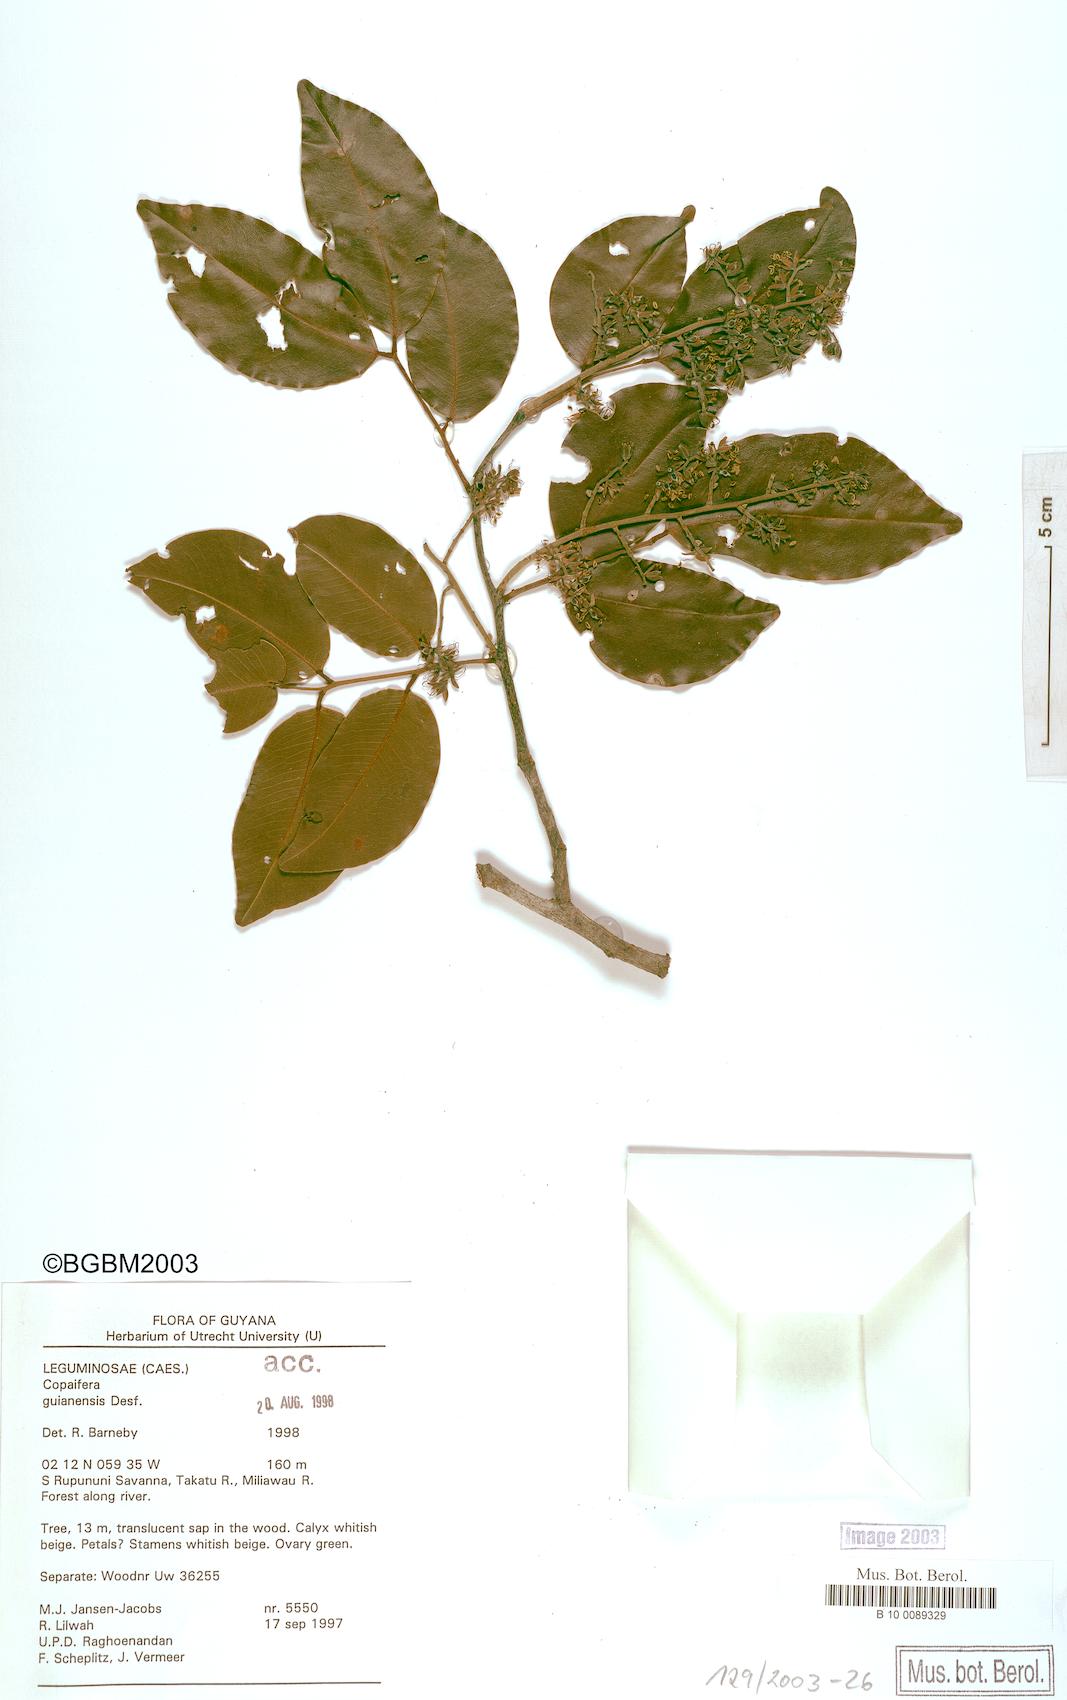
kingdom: Plantae
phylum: Tracheophyta
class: Magnoliopsida
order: Fabales
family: Fabaceae
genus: Copaifera
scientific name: Copaifera guianensis
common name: Copaiba
